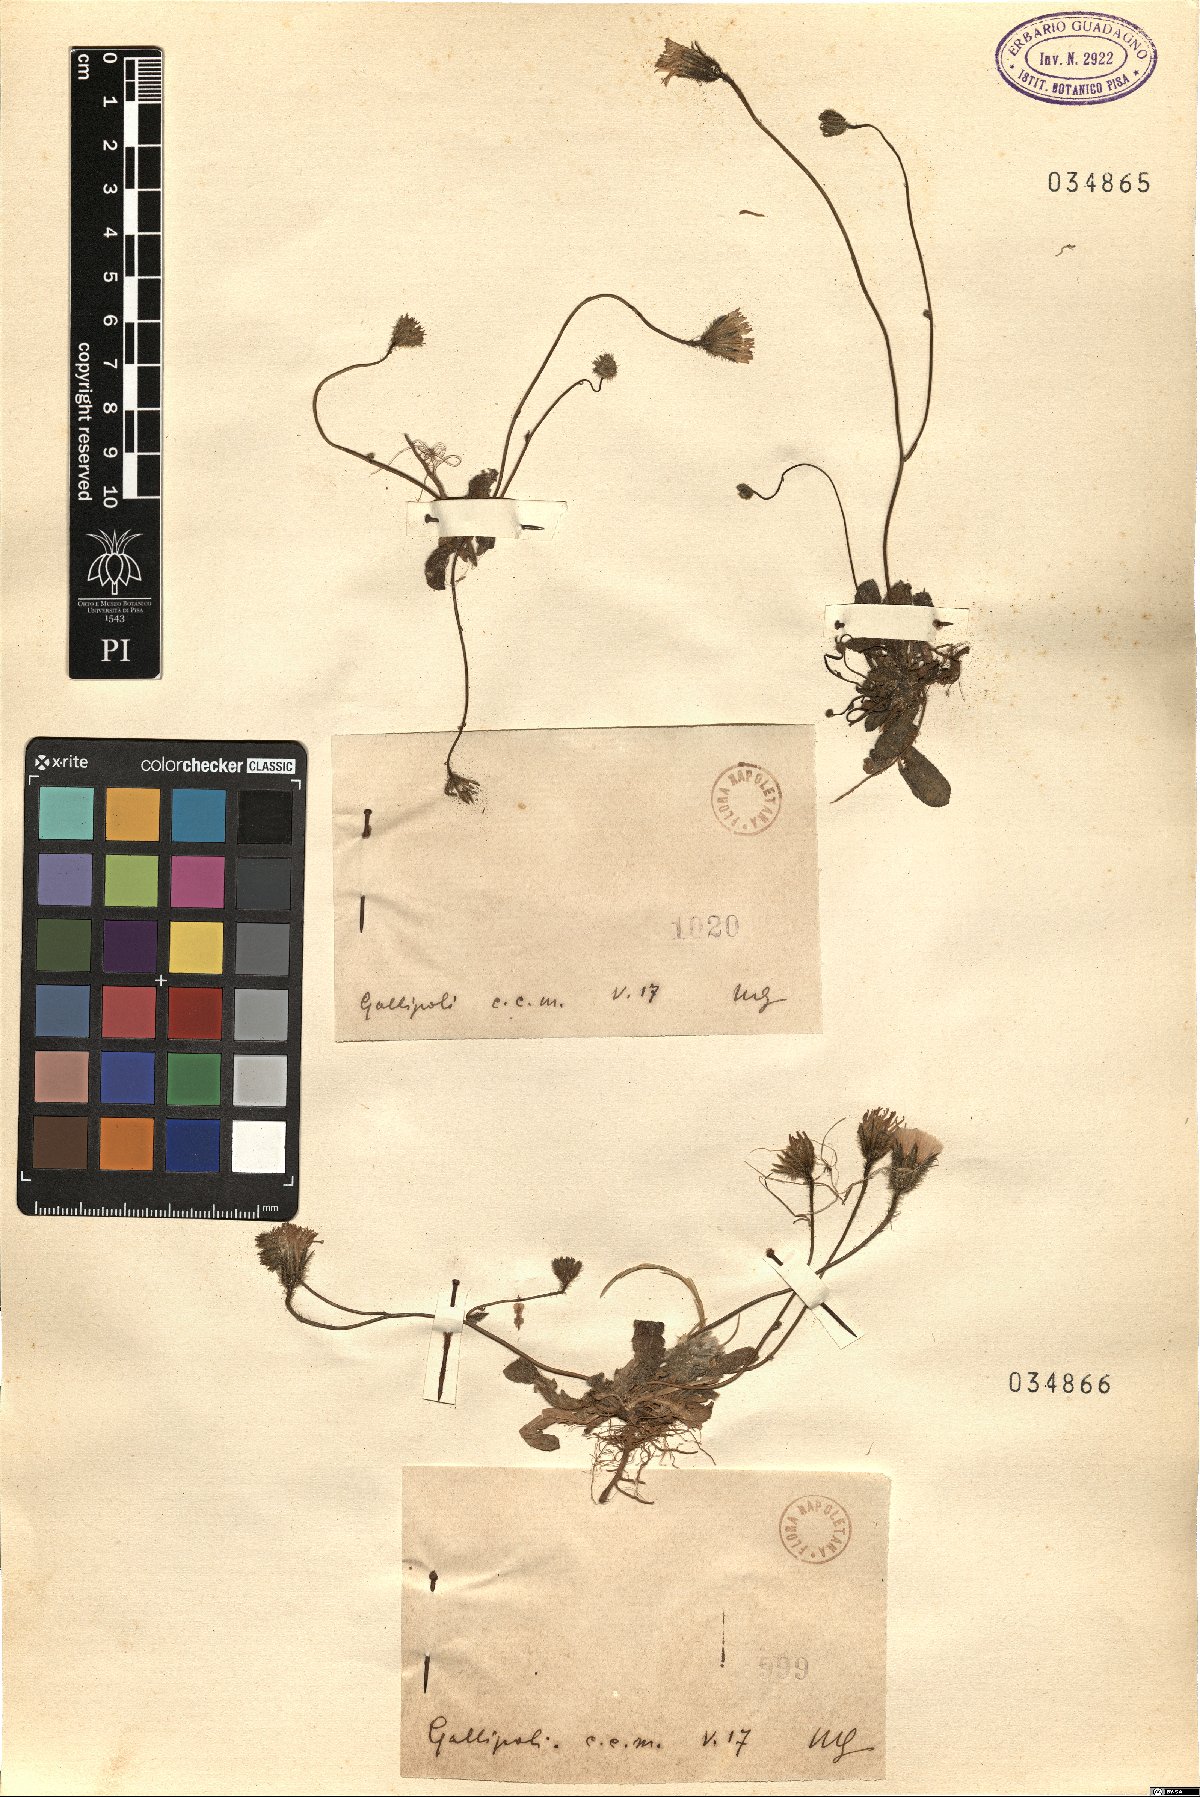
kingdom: Plantae
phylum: Tracheophyta
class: Magnoliopsida
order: Asterales
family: Asteraceae
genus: Hypochaeris
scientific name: Hypochaeris
